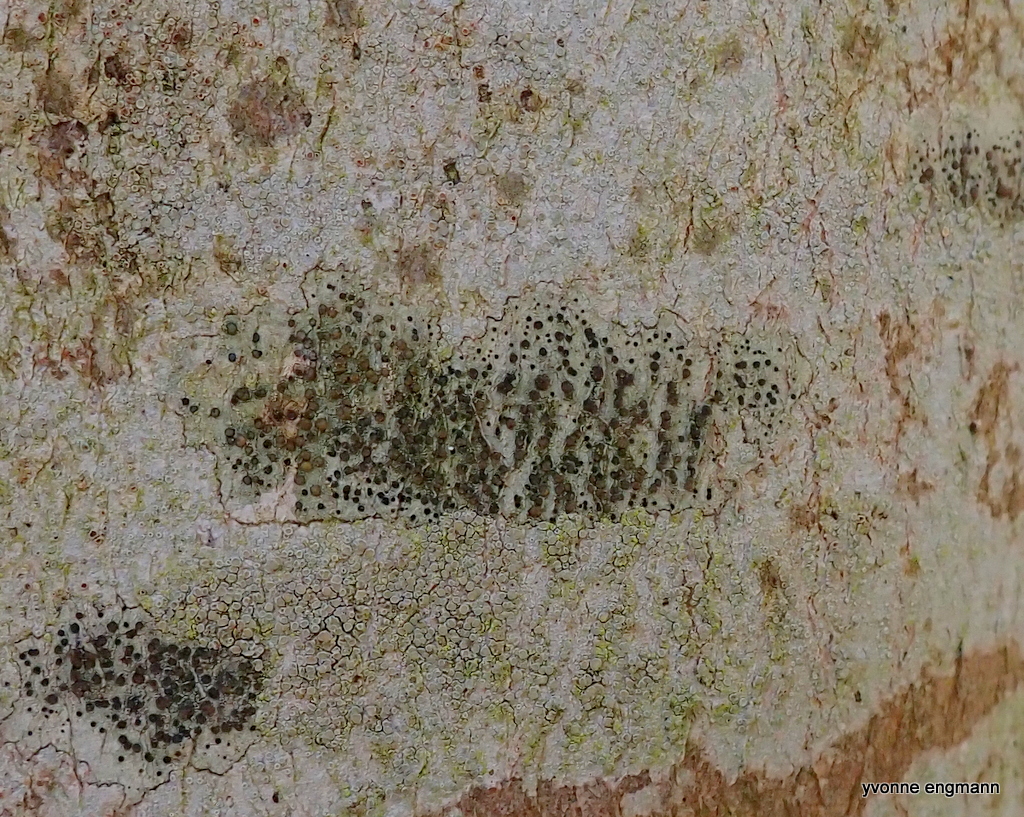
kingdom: Fungi
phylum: Ascomycota
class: Lecanoromycetes
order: Lecanorales
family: Lecanoraceae
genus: Lecidella
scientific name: Lecidella elaeochroma
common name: grågrøn skivelav
